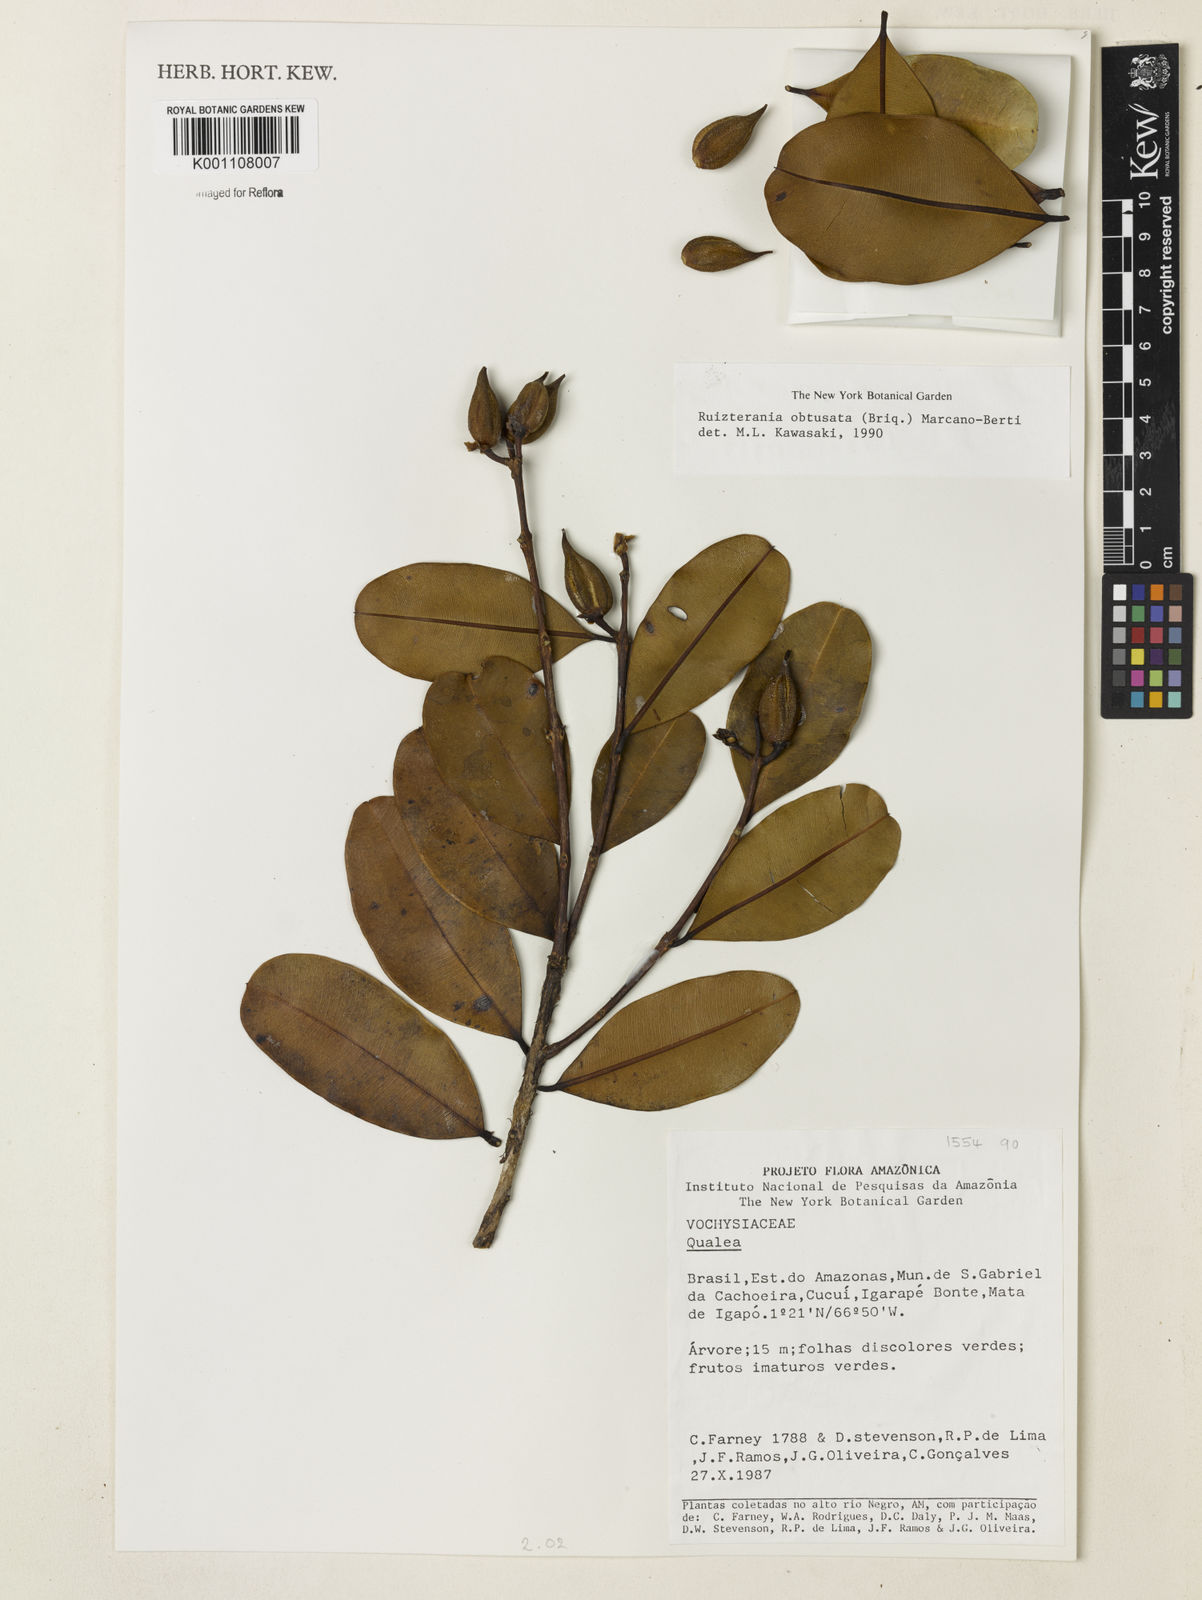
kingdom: Plantae
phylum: Tracheophyta
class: Magnoliopsida
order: Myrtales
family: Vochysiaceae
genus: Ruizterania
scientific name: Ruizterania obtusata
